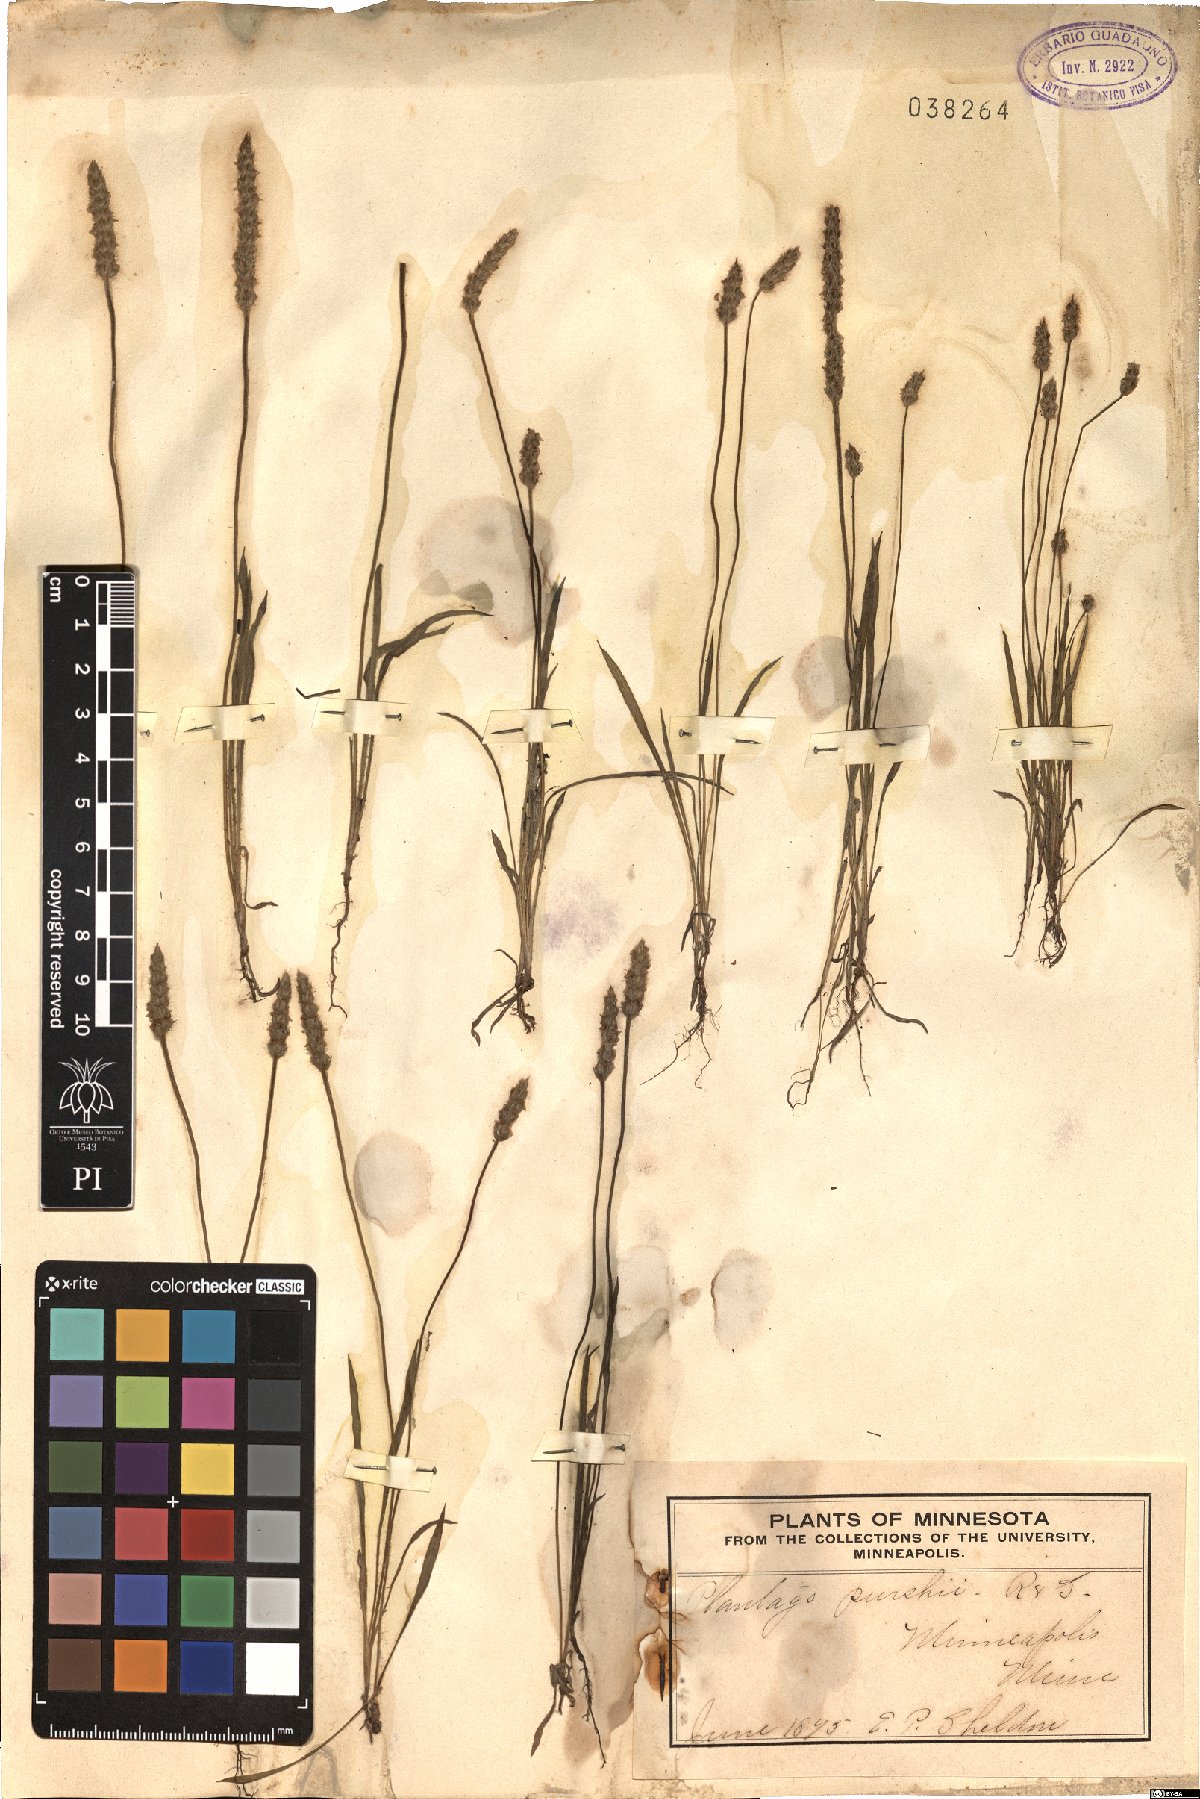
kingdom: Plantae
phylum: Tracheophyta
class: Magnoliopsida
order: Lamiales
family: Plantaginaceae
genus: Plantago
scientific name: Plantago patagonica
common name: Patagonia indian-wheat
